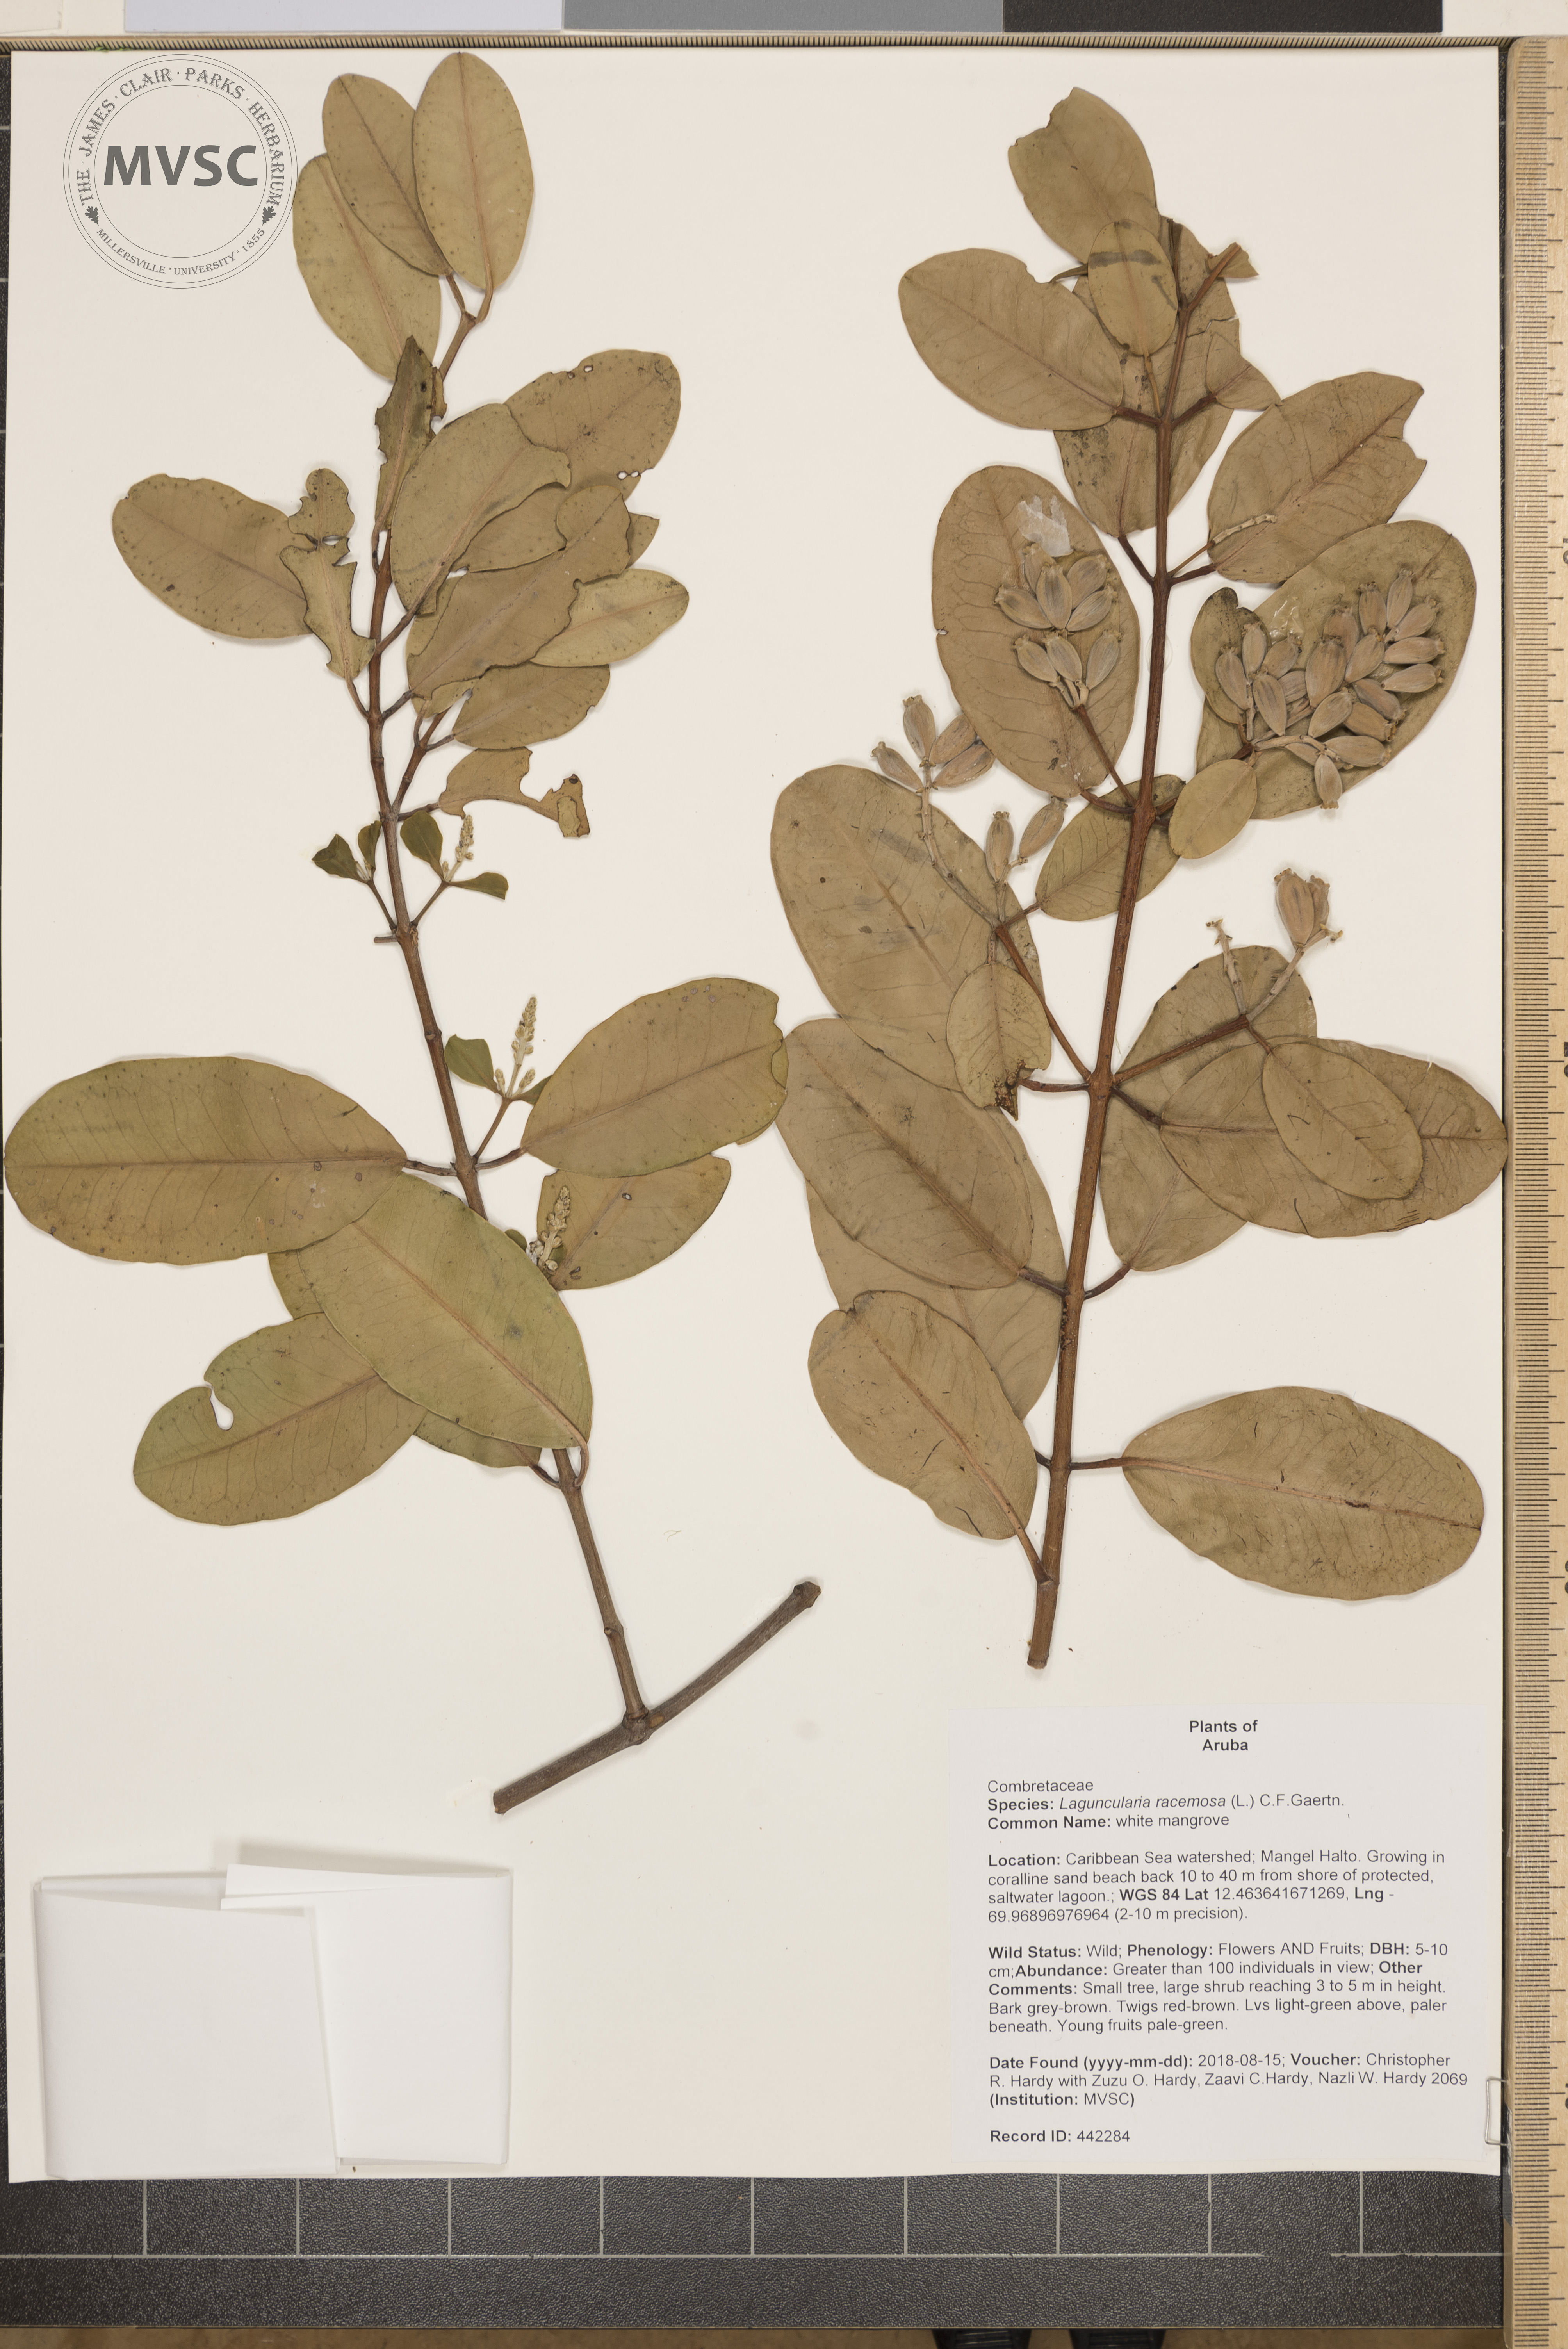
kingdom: Plantae
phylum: Tracheophyta
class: Magnoliopsida
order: Myrtales
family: Combretaceae
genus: Laguncularia
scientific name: Laguncularia racemosa
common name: white mangrove
